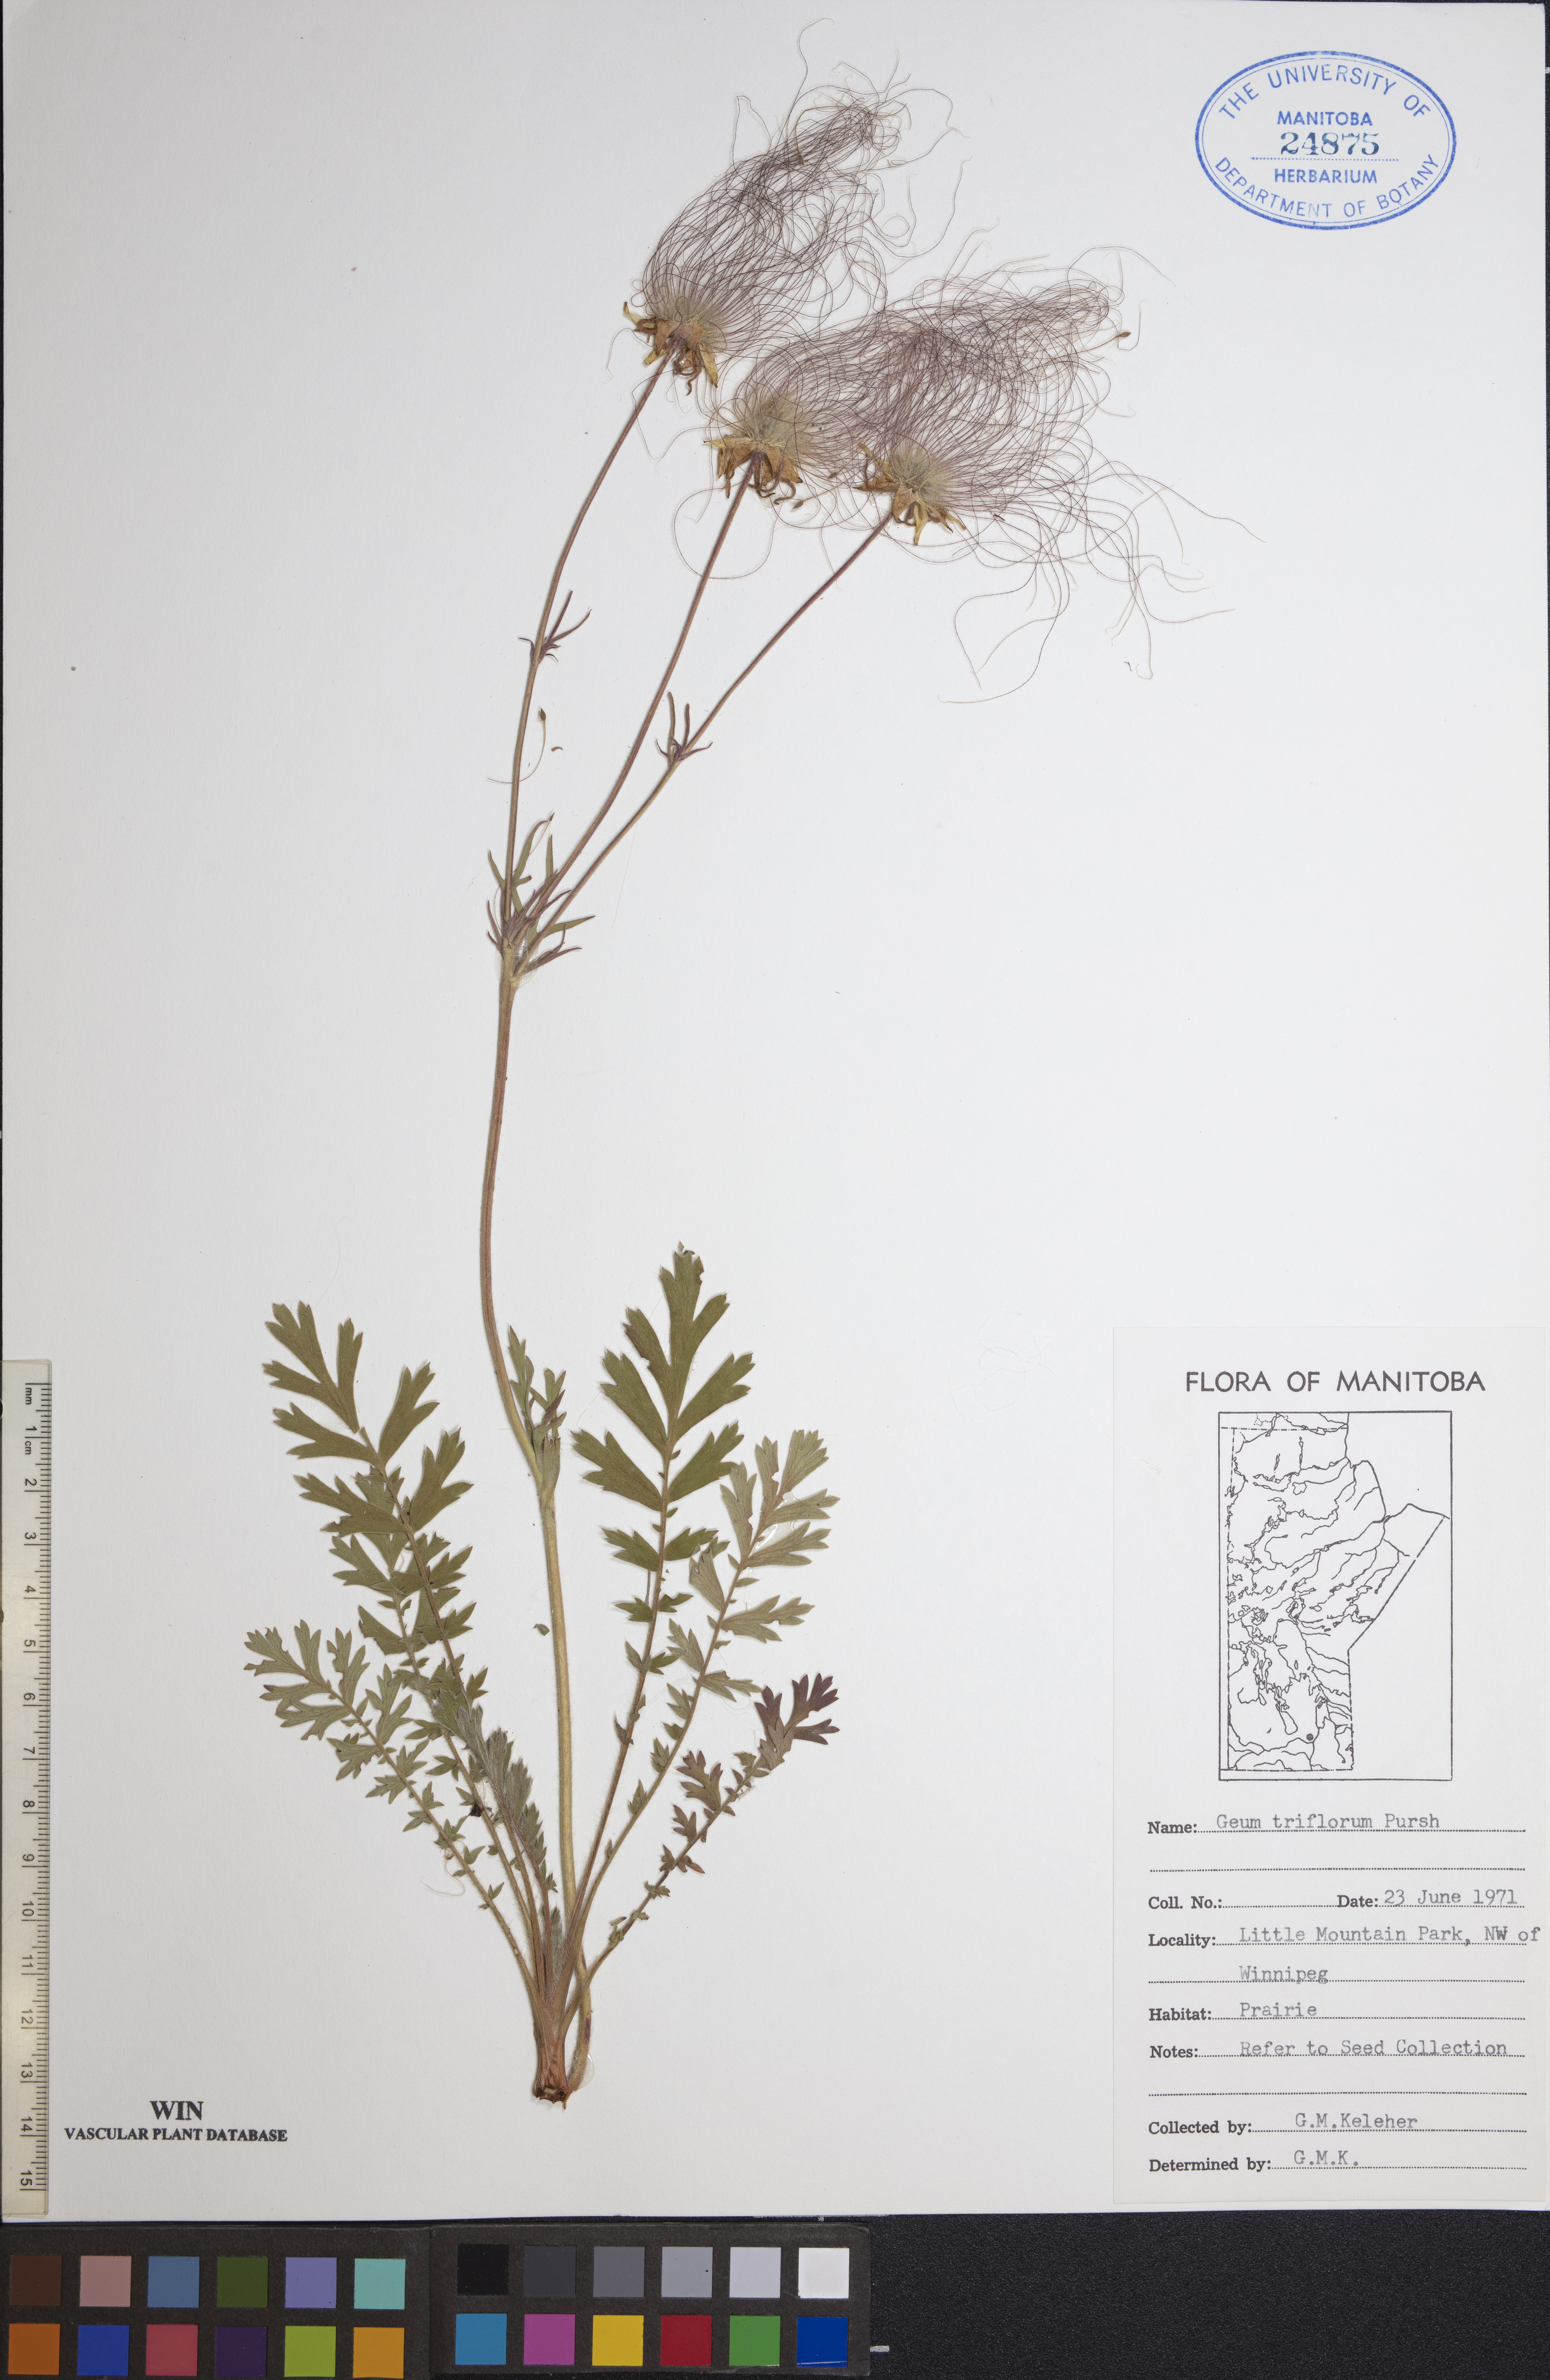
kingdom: Plantae
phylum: Tracheophyta
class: Magnoliopsida
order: Rosales
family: Rosaceae
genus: Geum
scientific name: Geum triflorum
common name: Old man's whiskers
